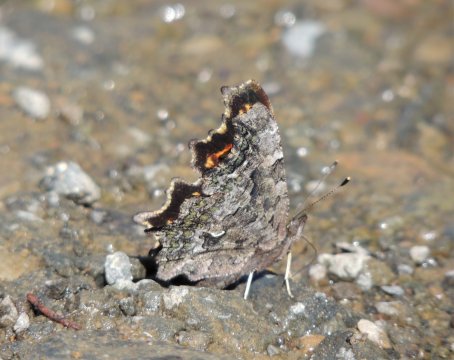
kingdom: Animalia
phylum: Arthropoda
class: Insecta
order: Lepidoptera
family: Nymphalidae
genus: Polygonia
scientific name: Polygonia faunus
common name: Green Comma
